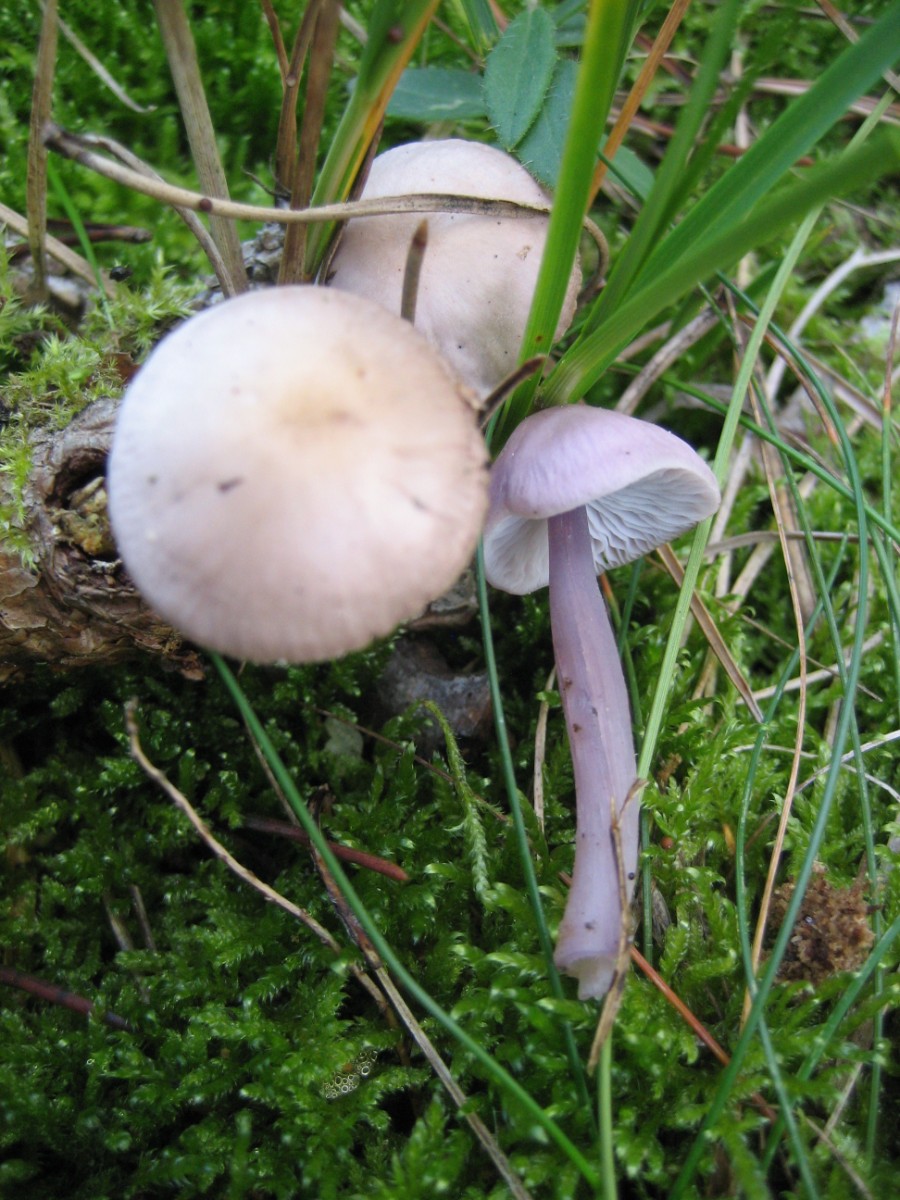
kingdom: Fungi
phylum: Basidiomycota
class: Agaricomycetes
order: Agaricales
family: Mycenaceae
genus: Mycena
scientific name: Mycena luteovariegata
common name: lillagul huesvamp
